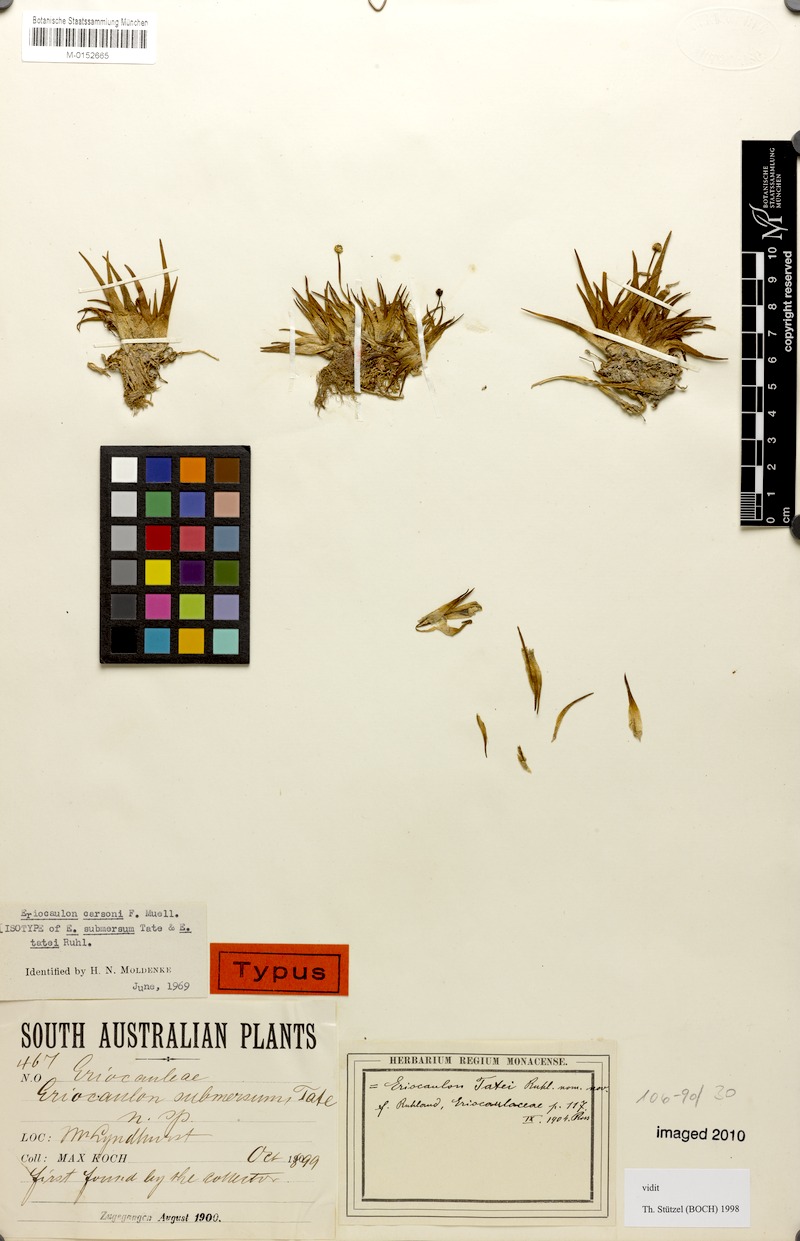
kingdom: Plantae
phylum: Tracheophyta
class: Liliopsida
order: Poales
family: Eriocaulaceae
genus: Eriocaulon
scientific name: Eriocaulon carsonii
